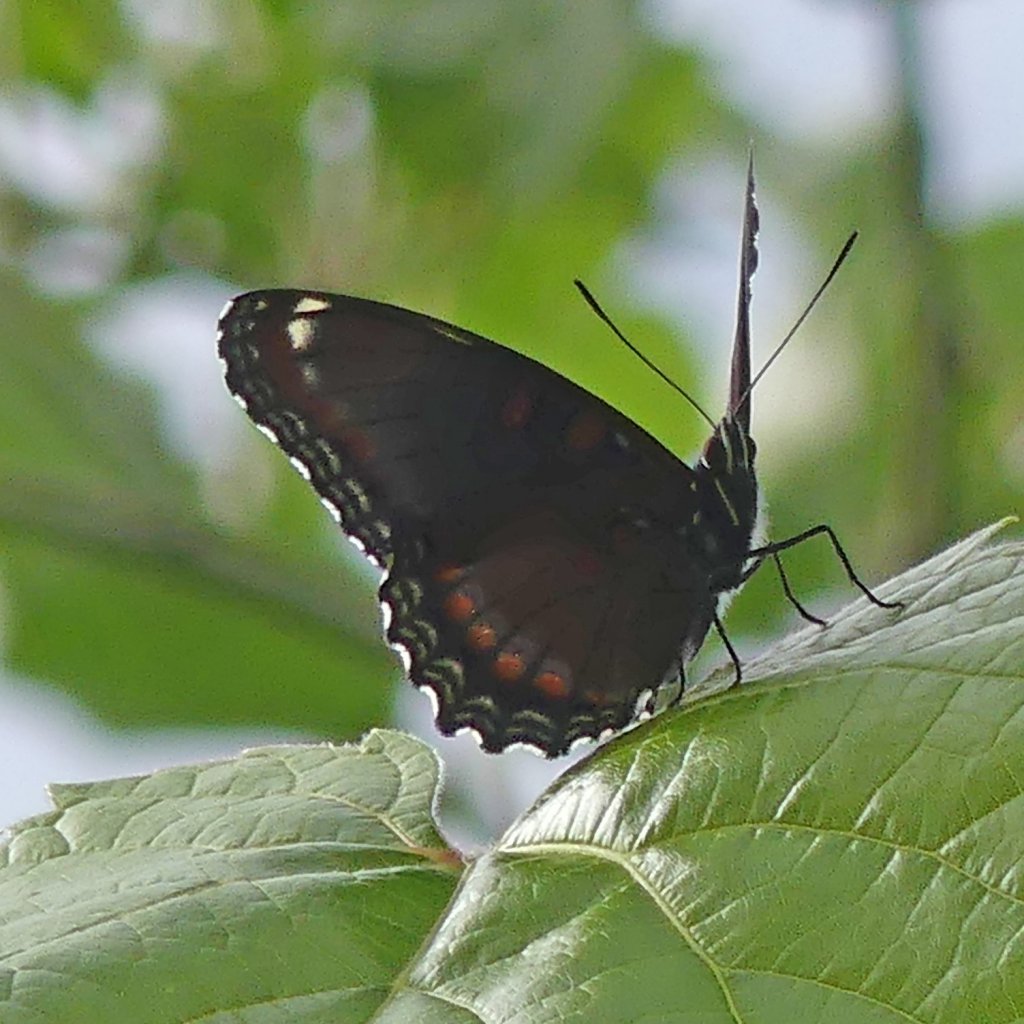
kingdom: Animalia
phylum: Arthropoda
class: Insecta
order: Lepidoptera
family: Nymphalidae
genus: Limenitis
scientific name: Limenitis astyanax
